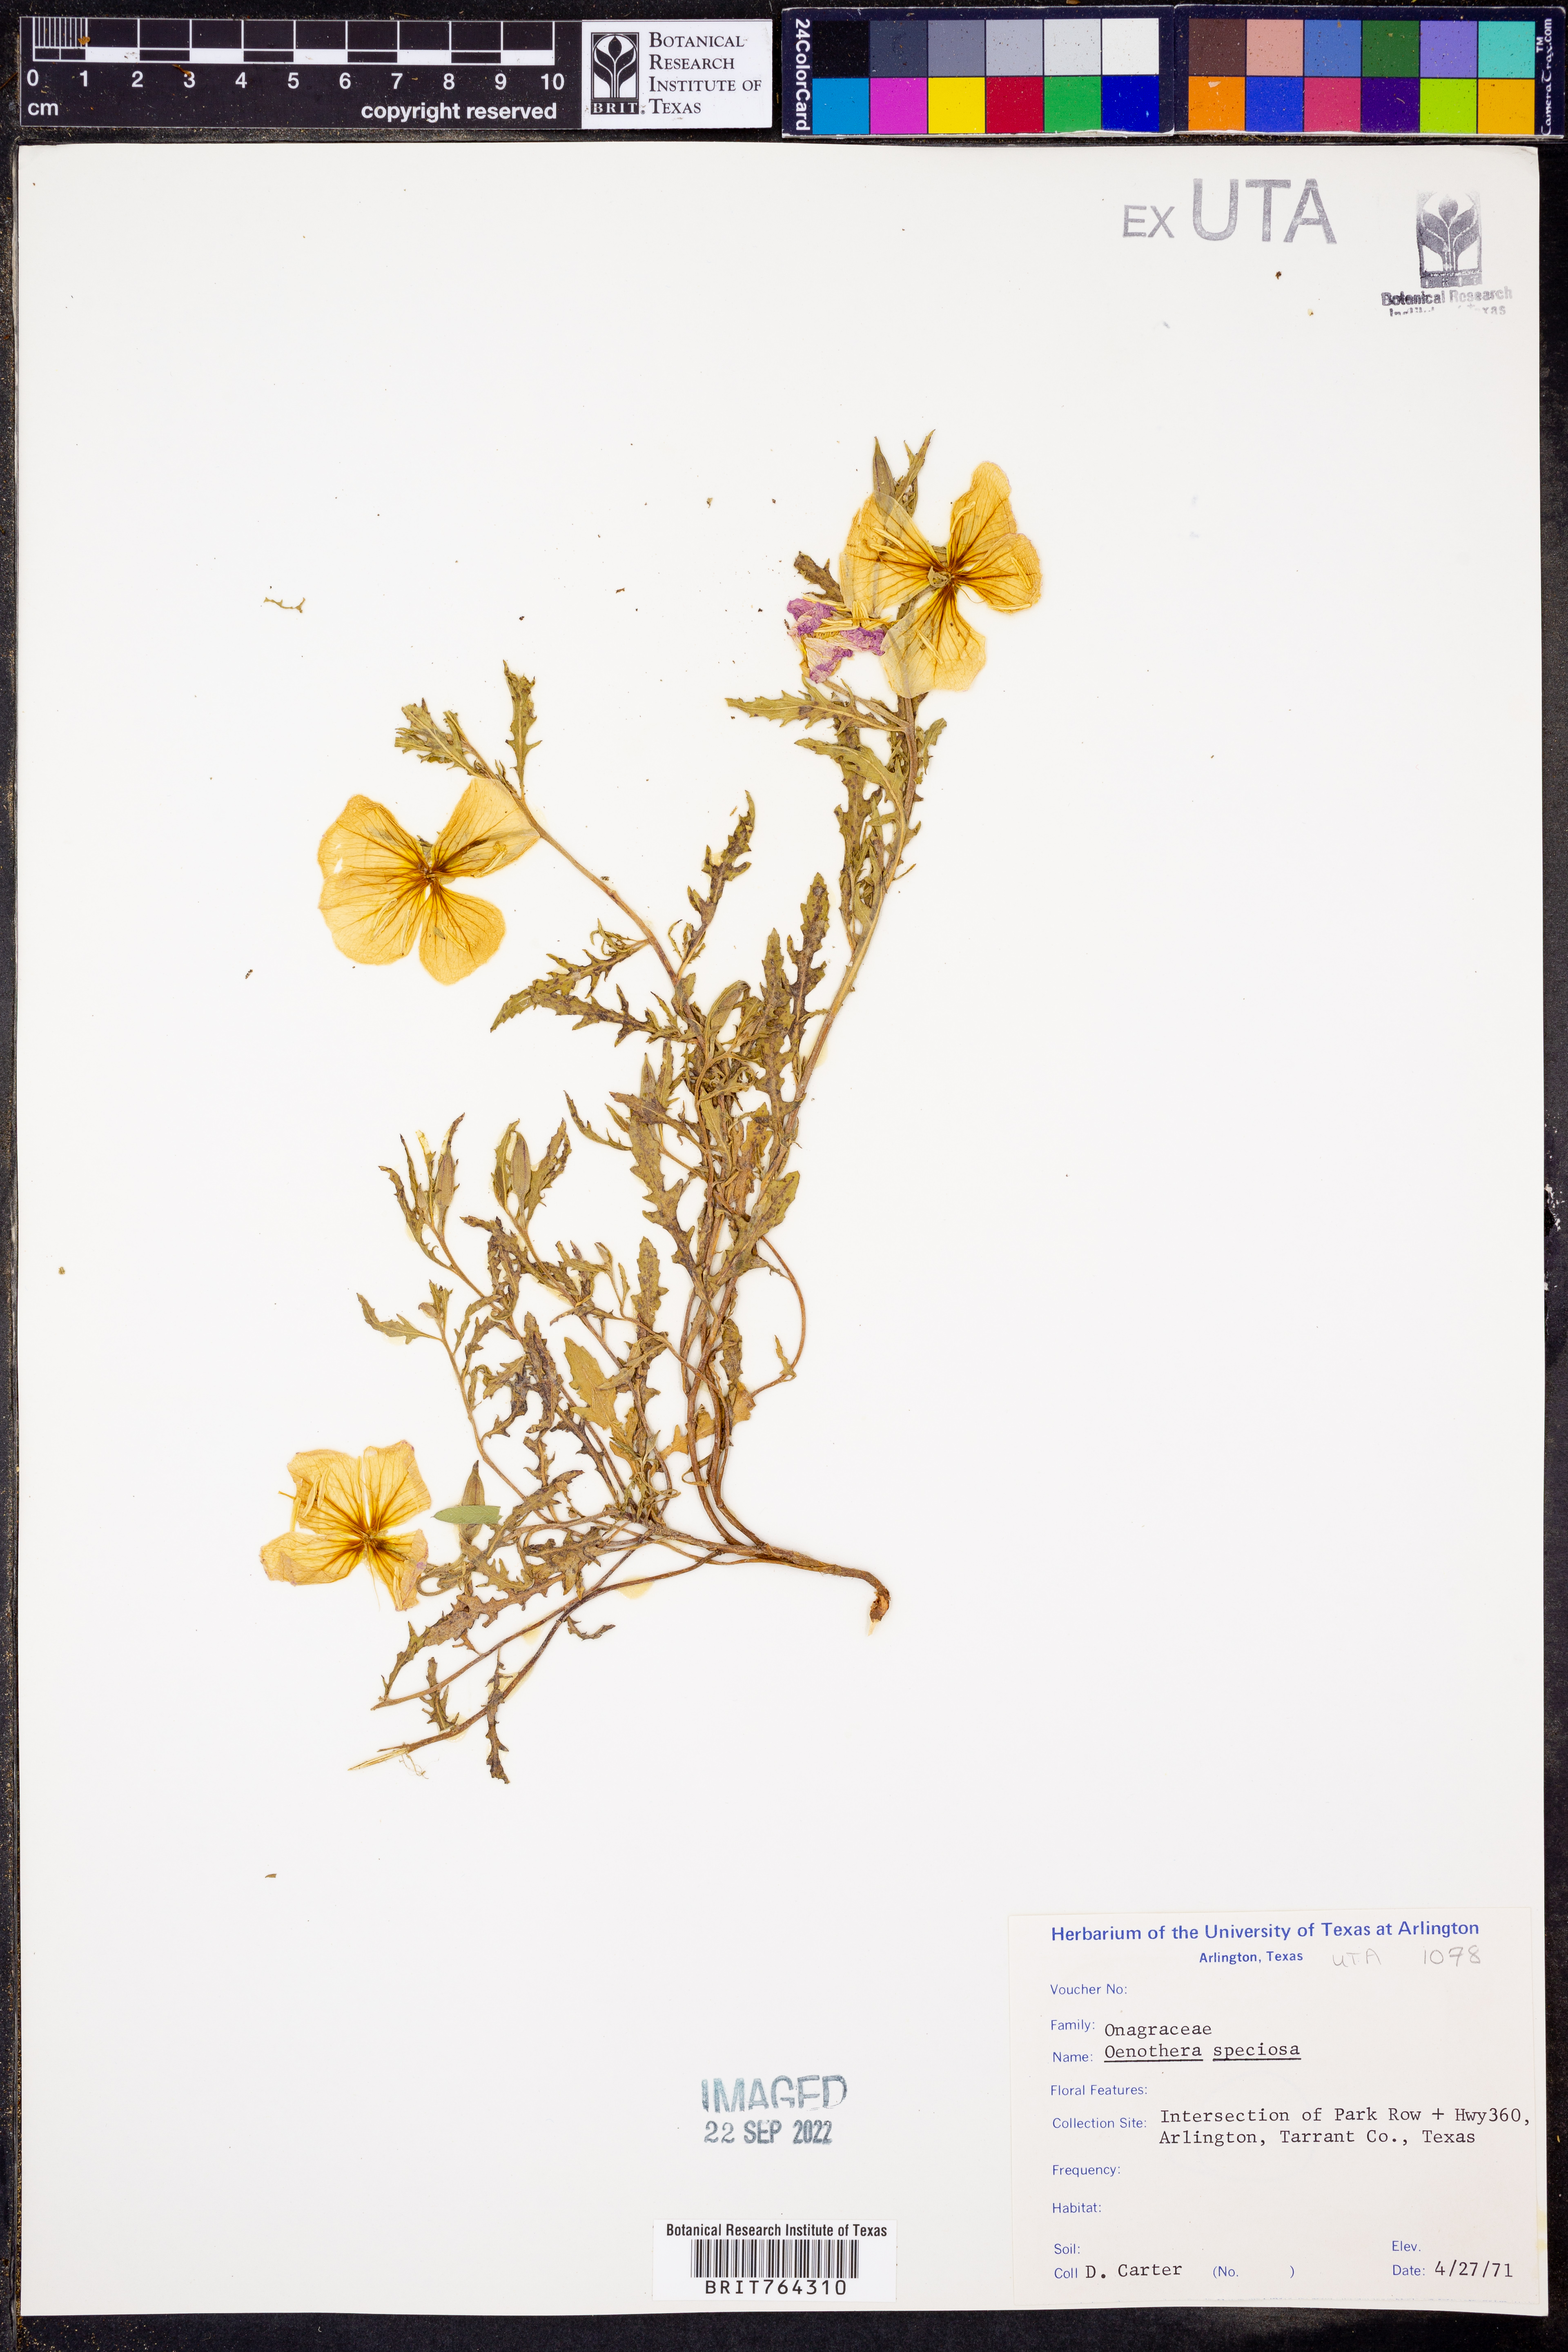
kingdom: Plantae
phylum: Tracheophyta
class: Magnoliopsida
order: Myrtales
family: Onagraceae
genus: Oenothera
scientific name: Oenothera speciosa
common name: White evening-primrose
